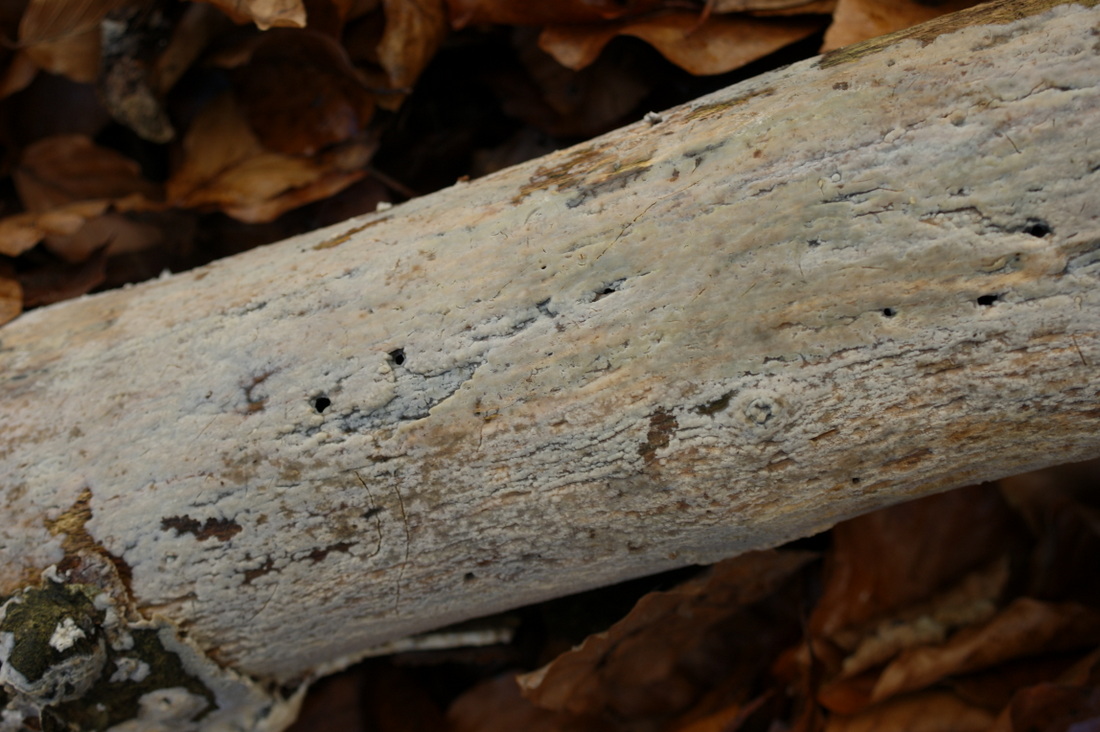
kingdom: Fungi
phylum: Basidiomycota
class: Agaricomycetes
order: Agaricales
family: Radulomycetaceae
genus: Radulomyces
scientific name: Radulomyces confluens
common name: glat naftalinskind
